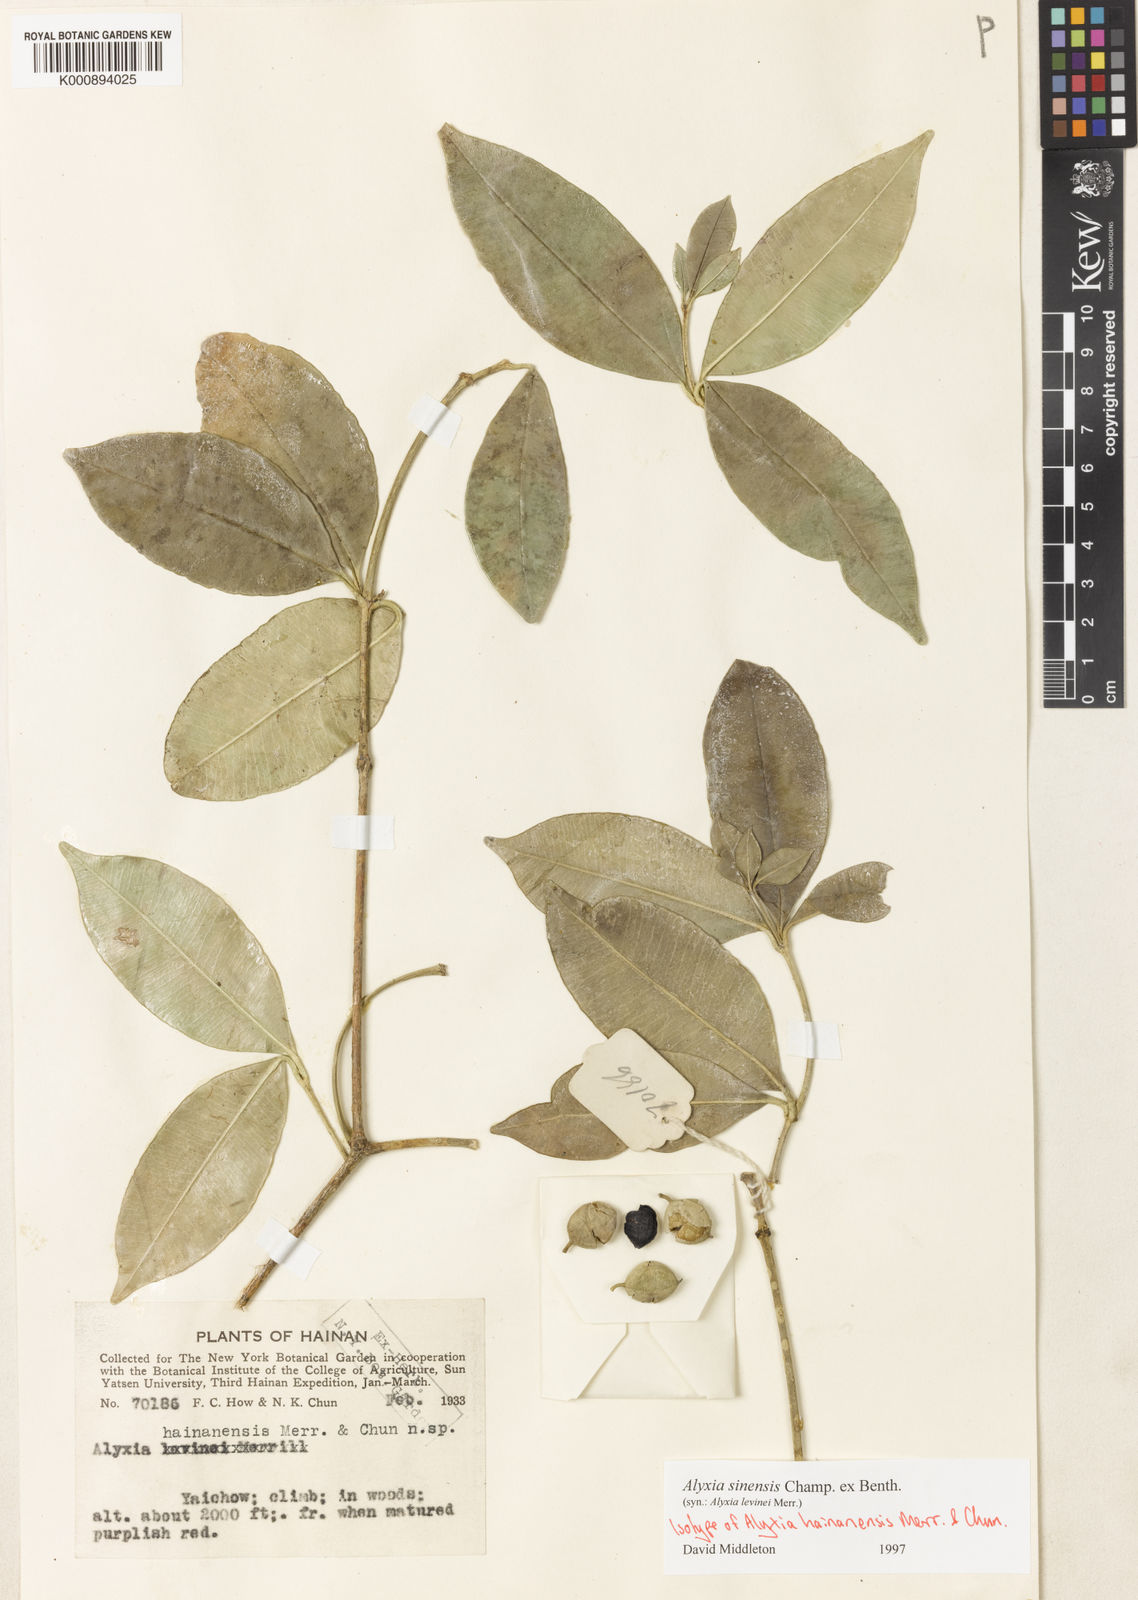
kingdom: Plantae
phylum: Tracheophyta
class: Magnoliopsida
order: Gentianales
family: Apocynaceae
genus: Alyxia
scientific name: Alyxia hainanensis
